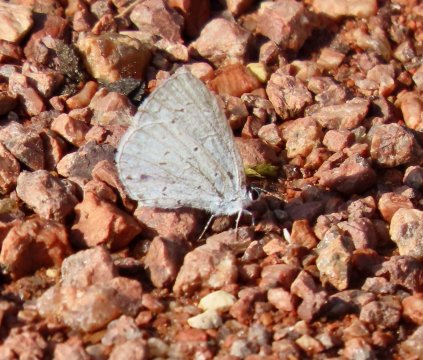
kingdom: Animalia
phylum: Arthropoda
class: Insecta
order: Lepidoptera
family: Lycaenidae
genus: Cyaniris
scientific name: Cyaniris neglecta
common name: Summer Azure
